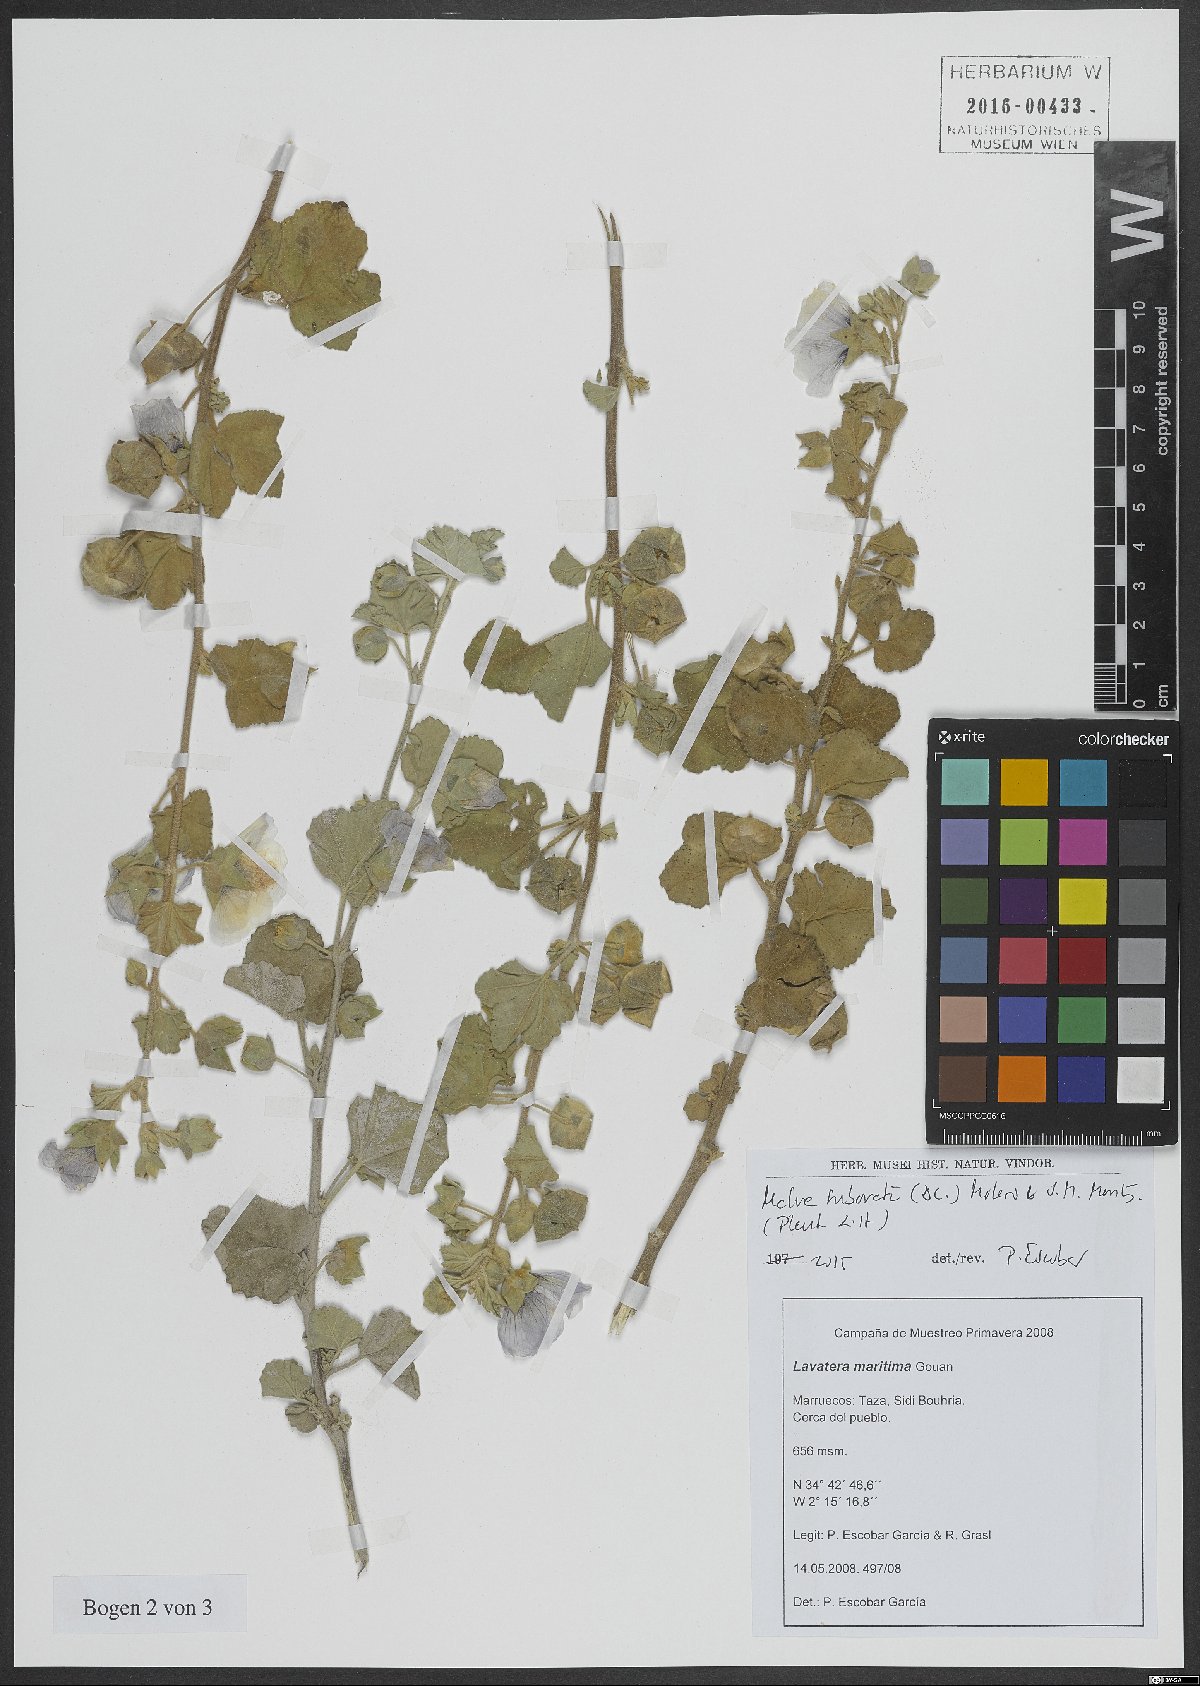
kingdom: Plantae
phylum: Tracheophyta
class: Magnoliopsida
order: Malvales
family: Malvaceae
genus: Malva
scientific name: Malva subovata
